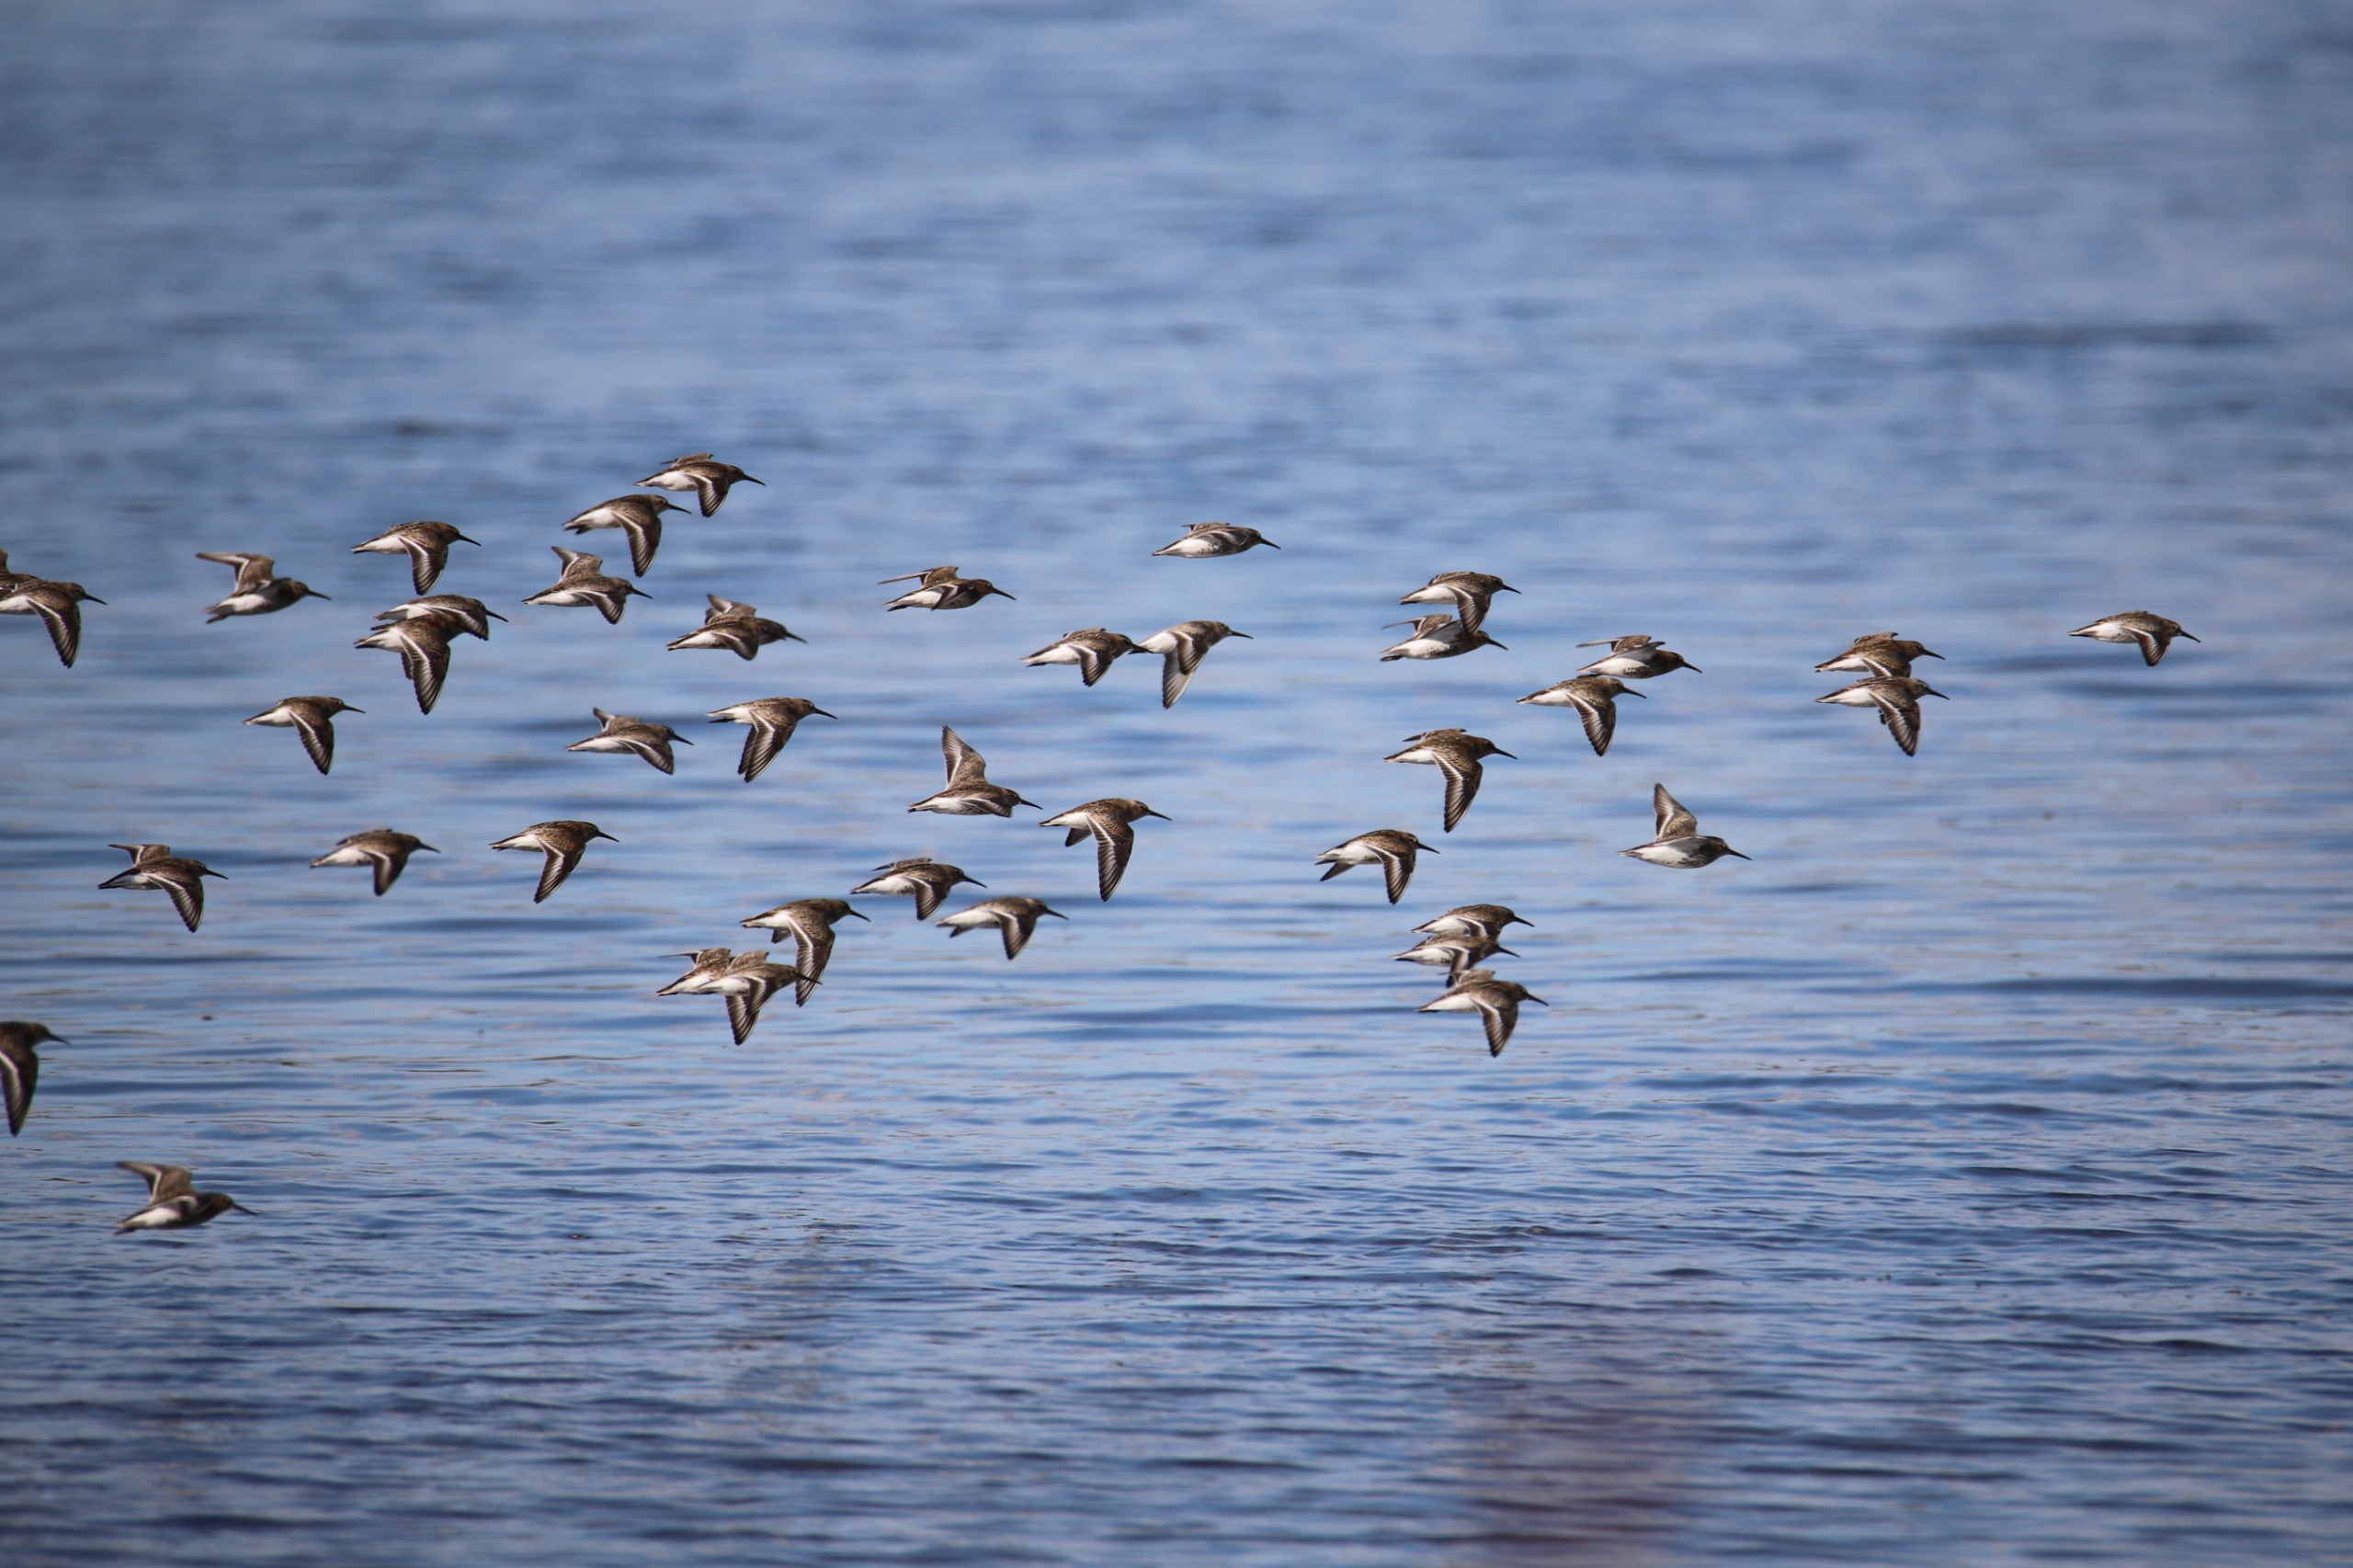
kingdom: Animalia
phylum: Chordata
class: Aves
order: Charadriiformes
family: Scolopacidae
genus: Calidris
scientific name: Calidris alpina
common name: Almindelig ryle
